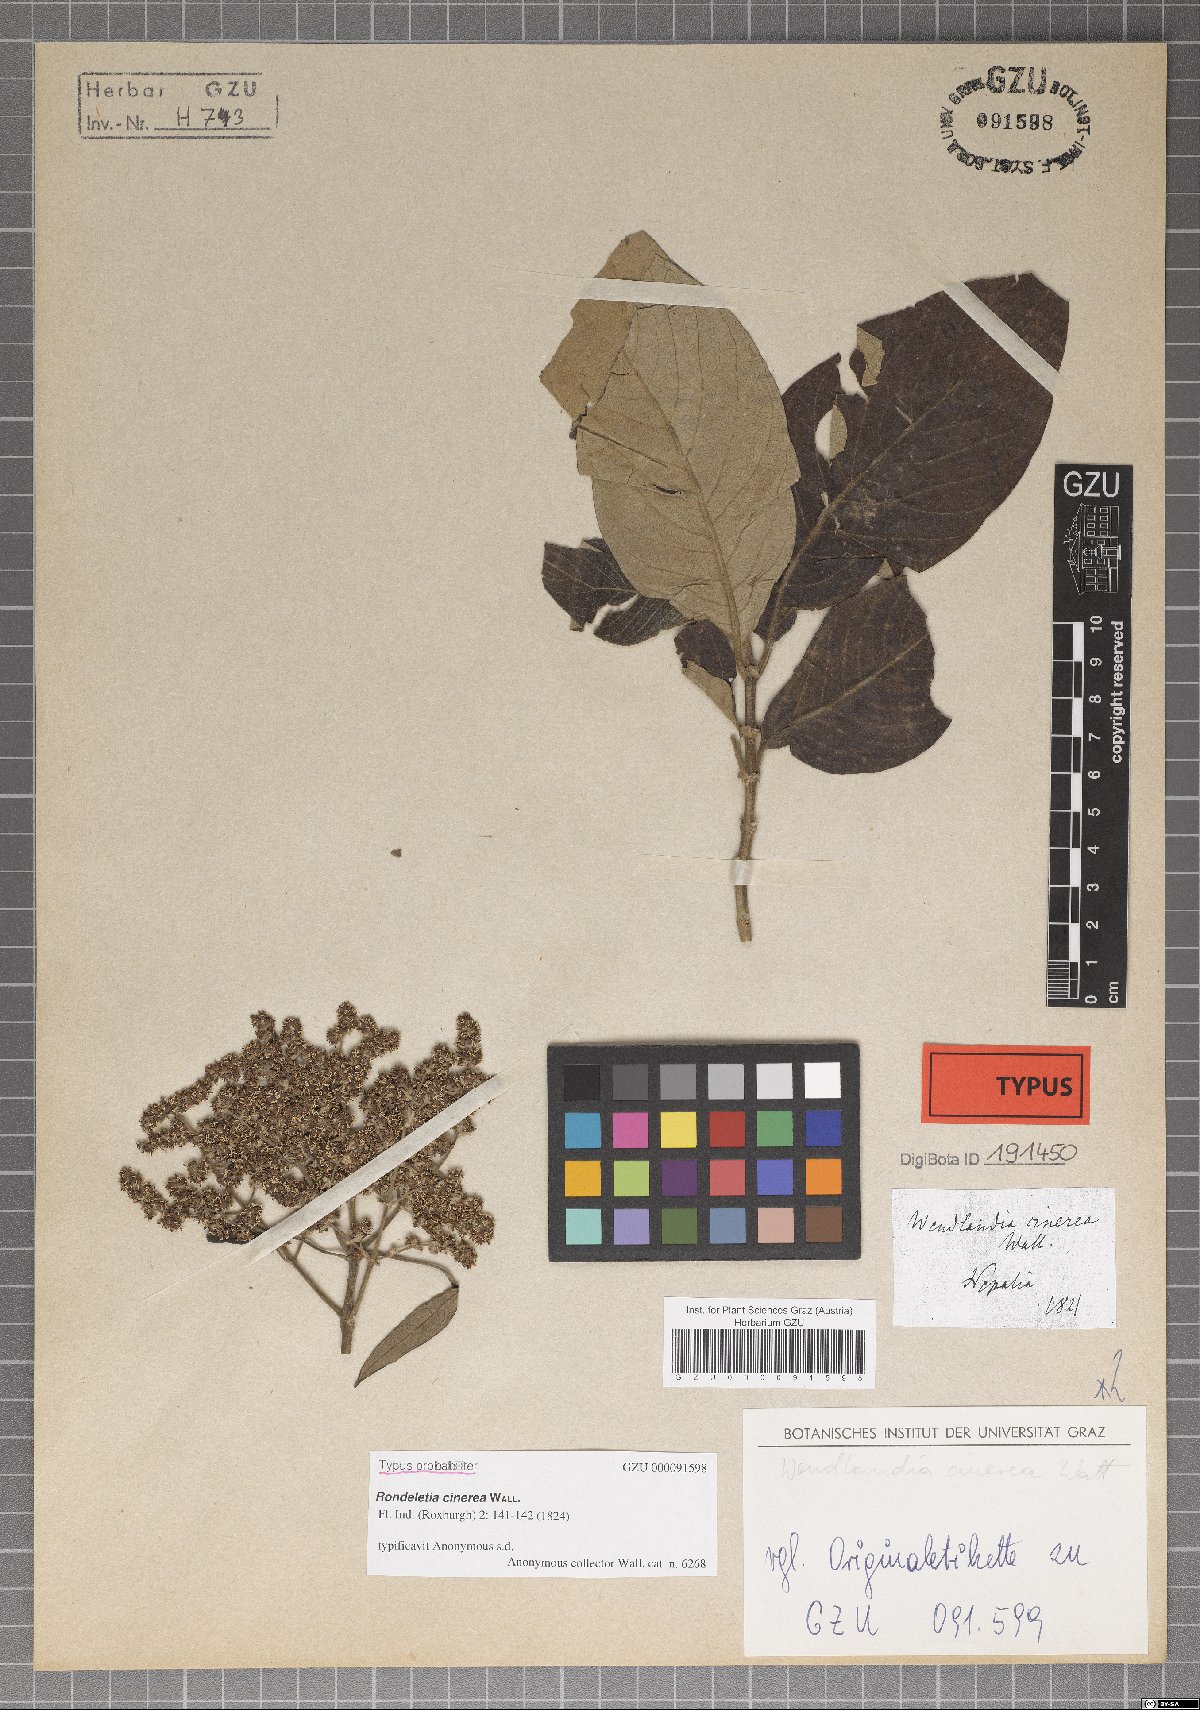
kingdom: Plantae
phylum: Tracheophyta
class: Magnoliopsida
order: Gentianales
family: Rubiaceae
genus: Wendlandia
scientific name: Wendlandia heynei
